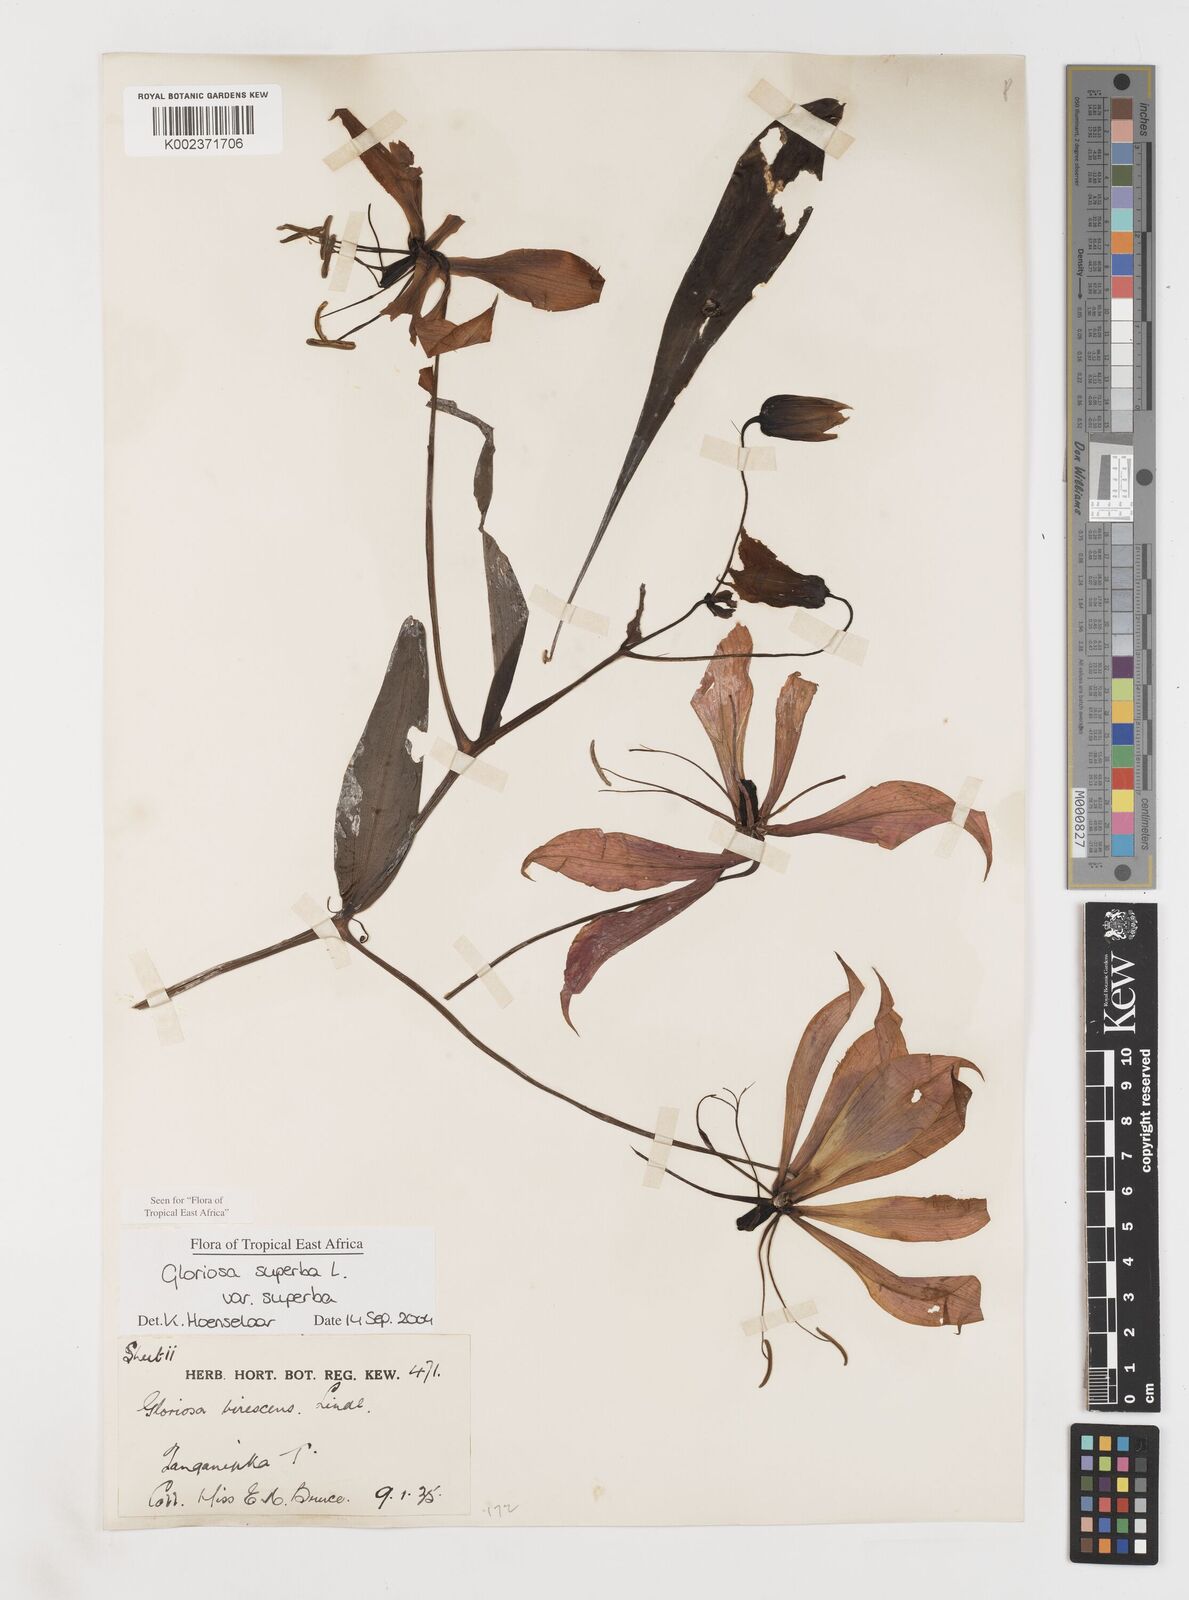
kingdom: Plantae
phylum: Tracheophyta
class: Liliopsida
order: Liliales
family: Colchicaceae
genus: Gloriosa
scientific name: Gloriosa simplex
